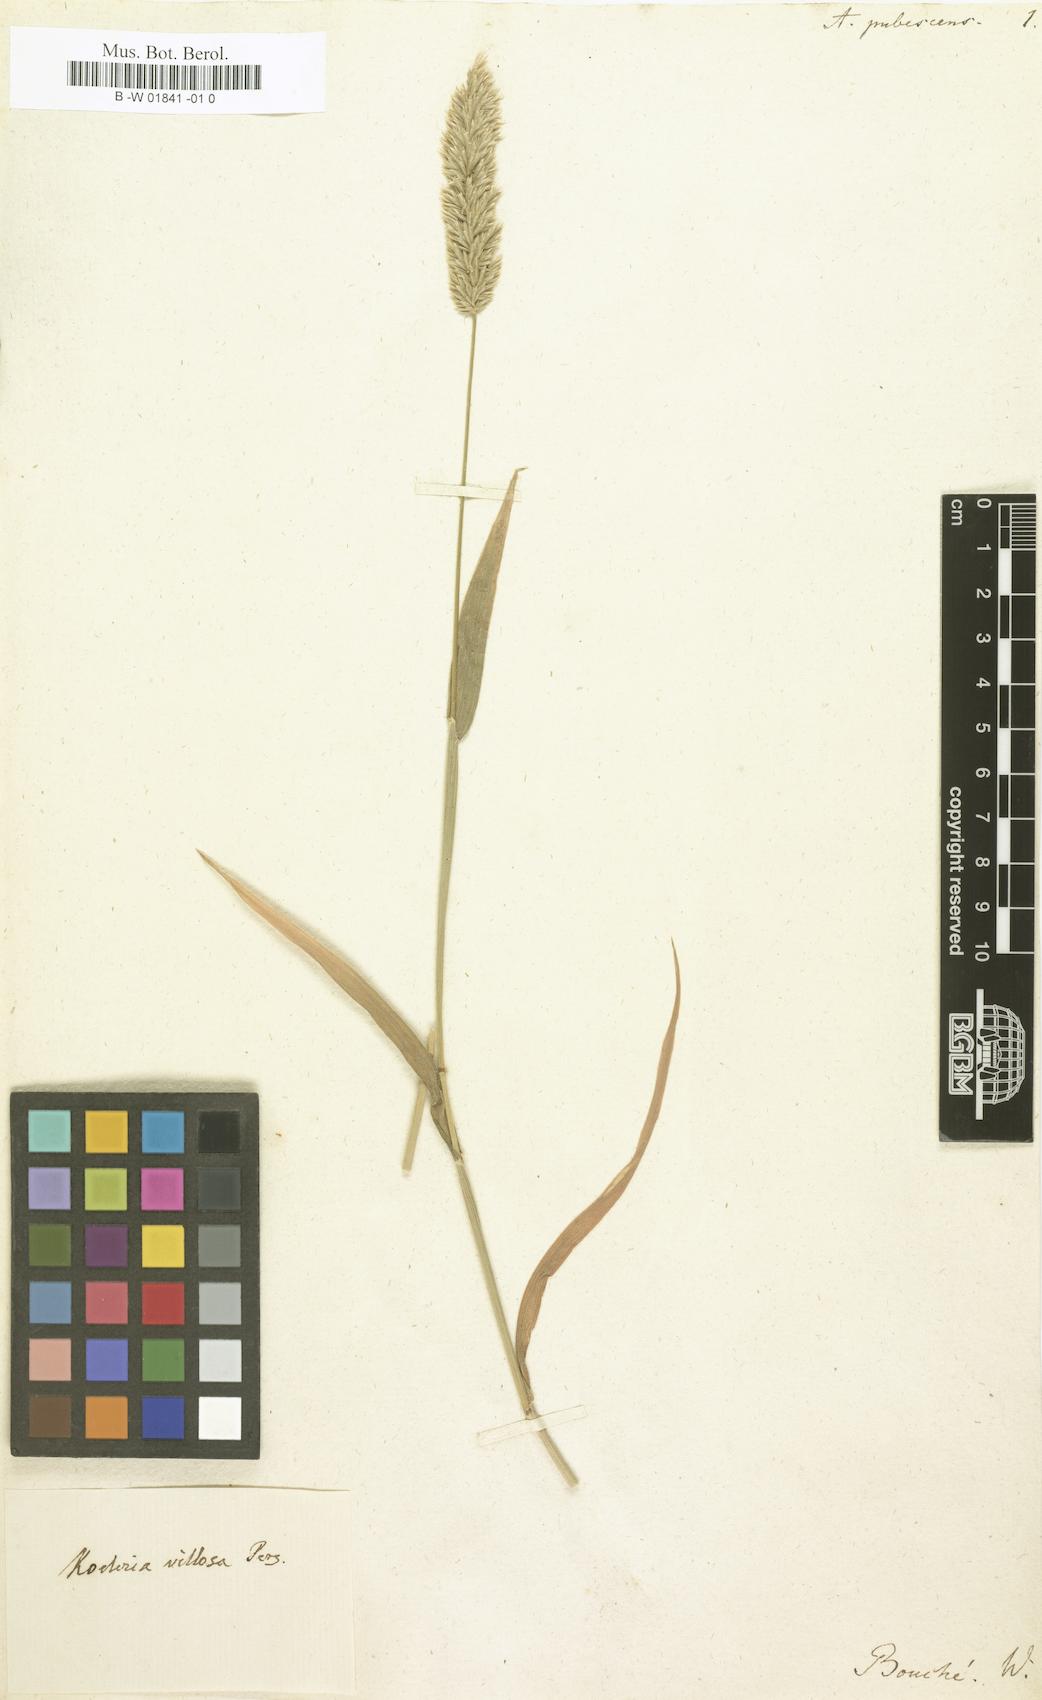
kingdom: Plantae
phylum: Tracheophyta
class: Liliopsida
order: Poales
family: Poaceae
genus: Rostraria
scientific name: Rostraria litorea
